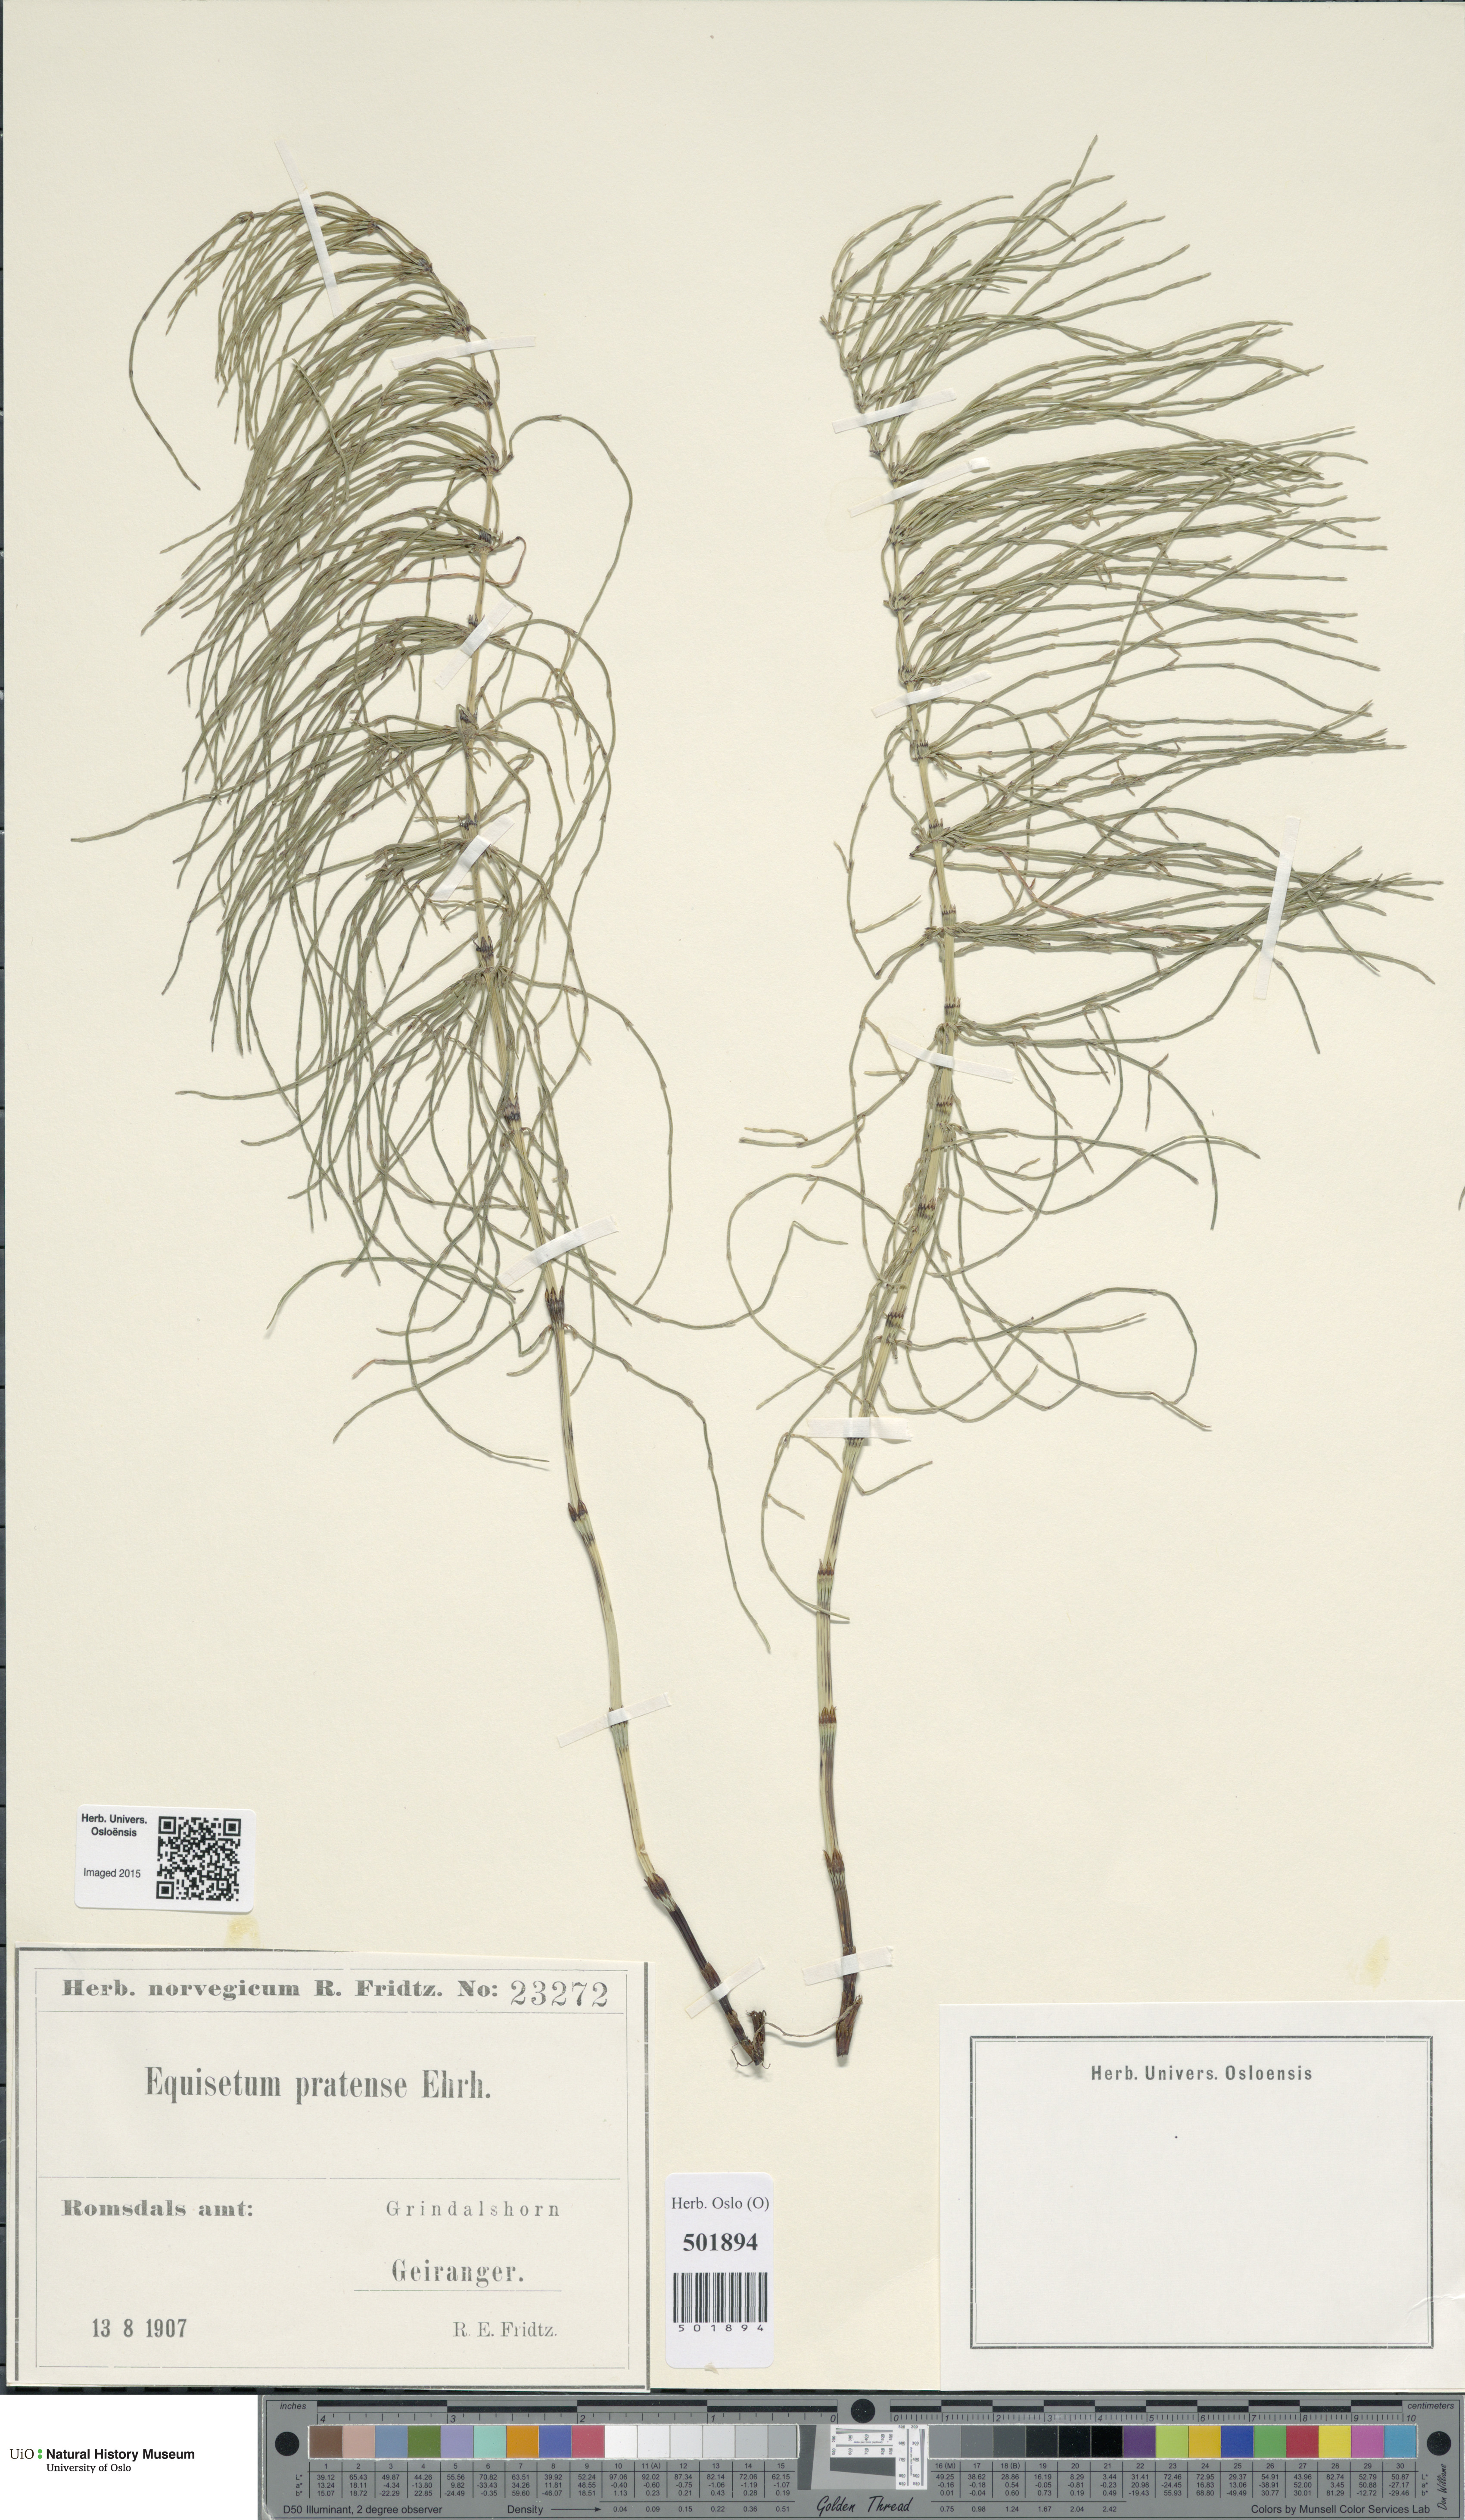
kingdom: Plantae
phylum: Tracheophyta
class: Polypodiopsida
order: Equisetales
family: Equisetaceae
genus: Equisetum
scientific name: Equisetum pratense
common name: Meadow horsetail
